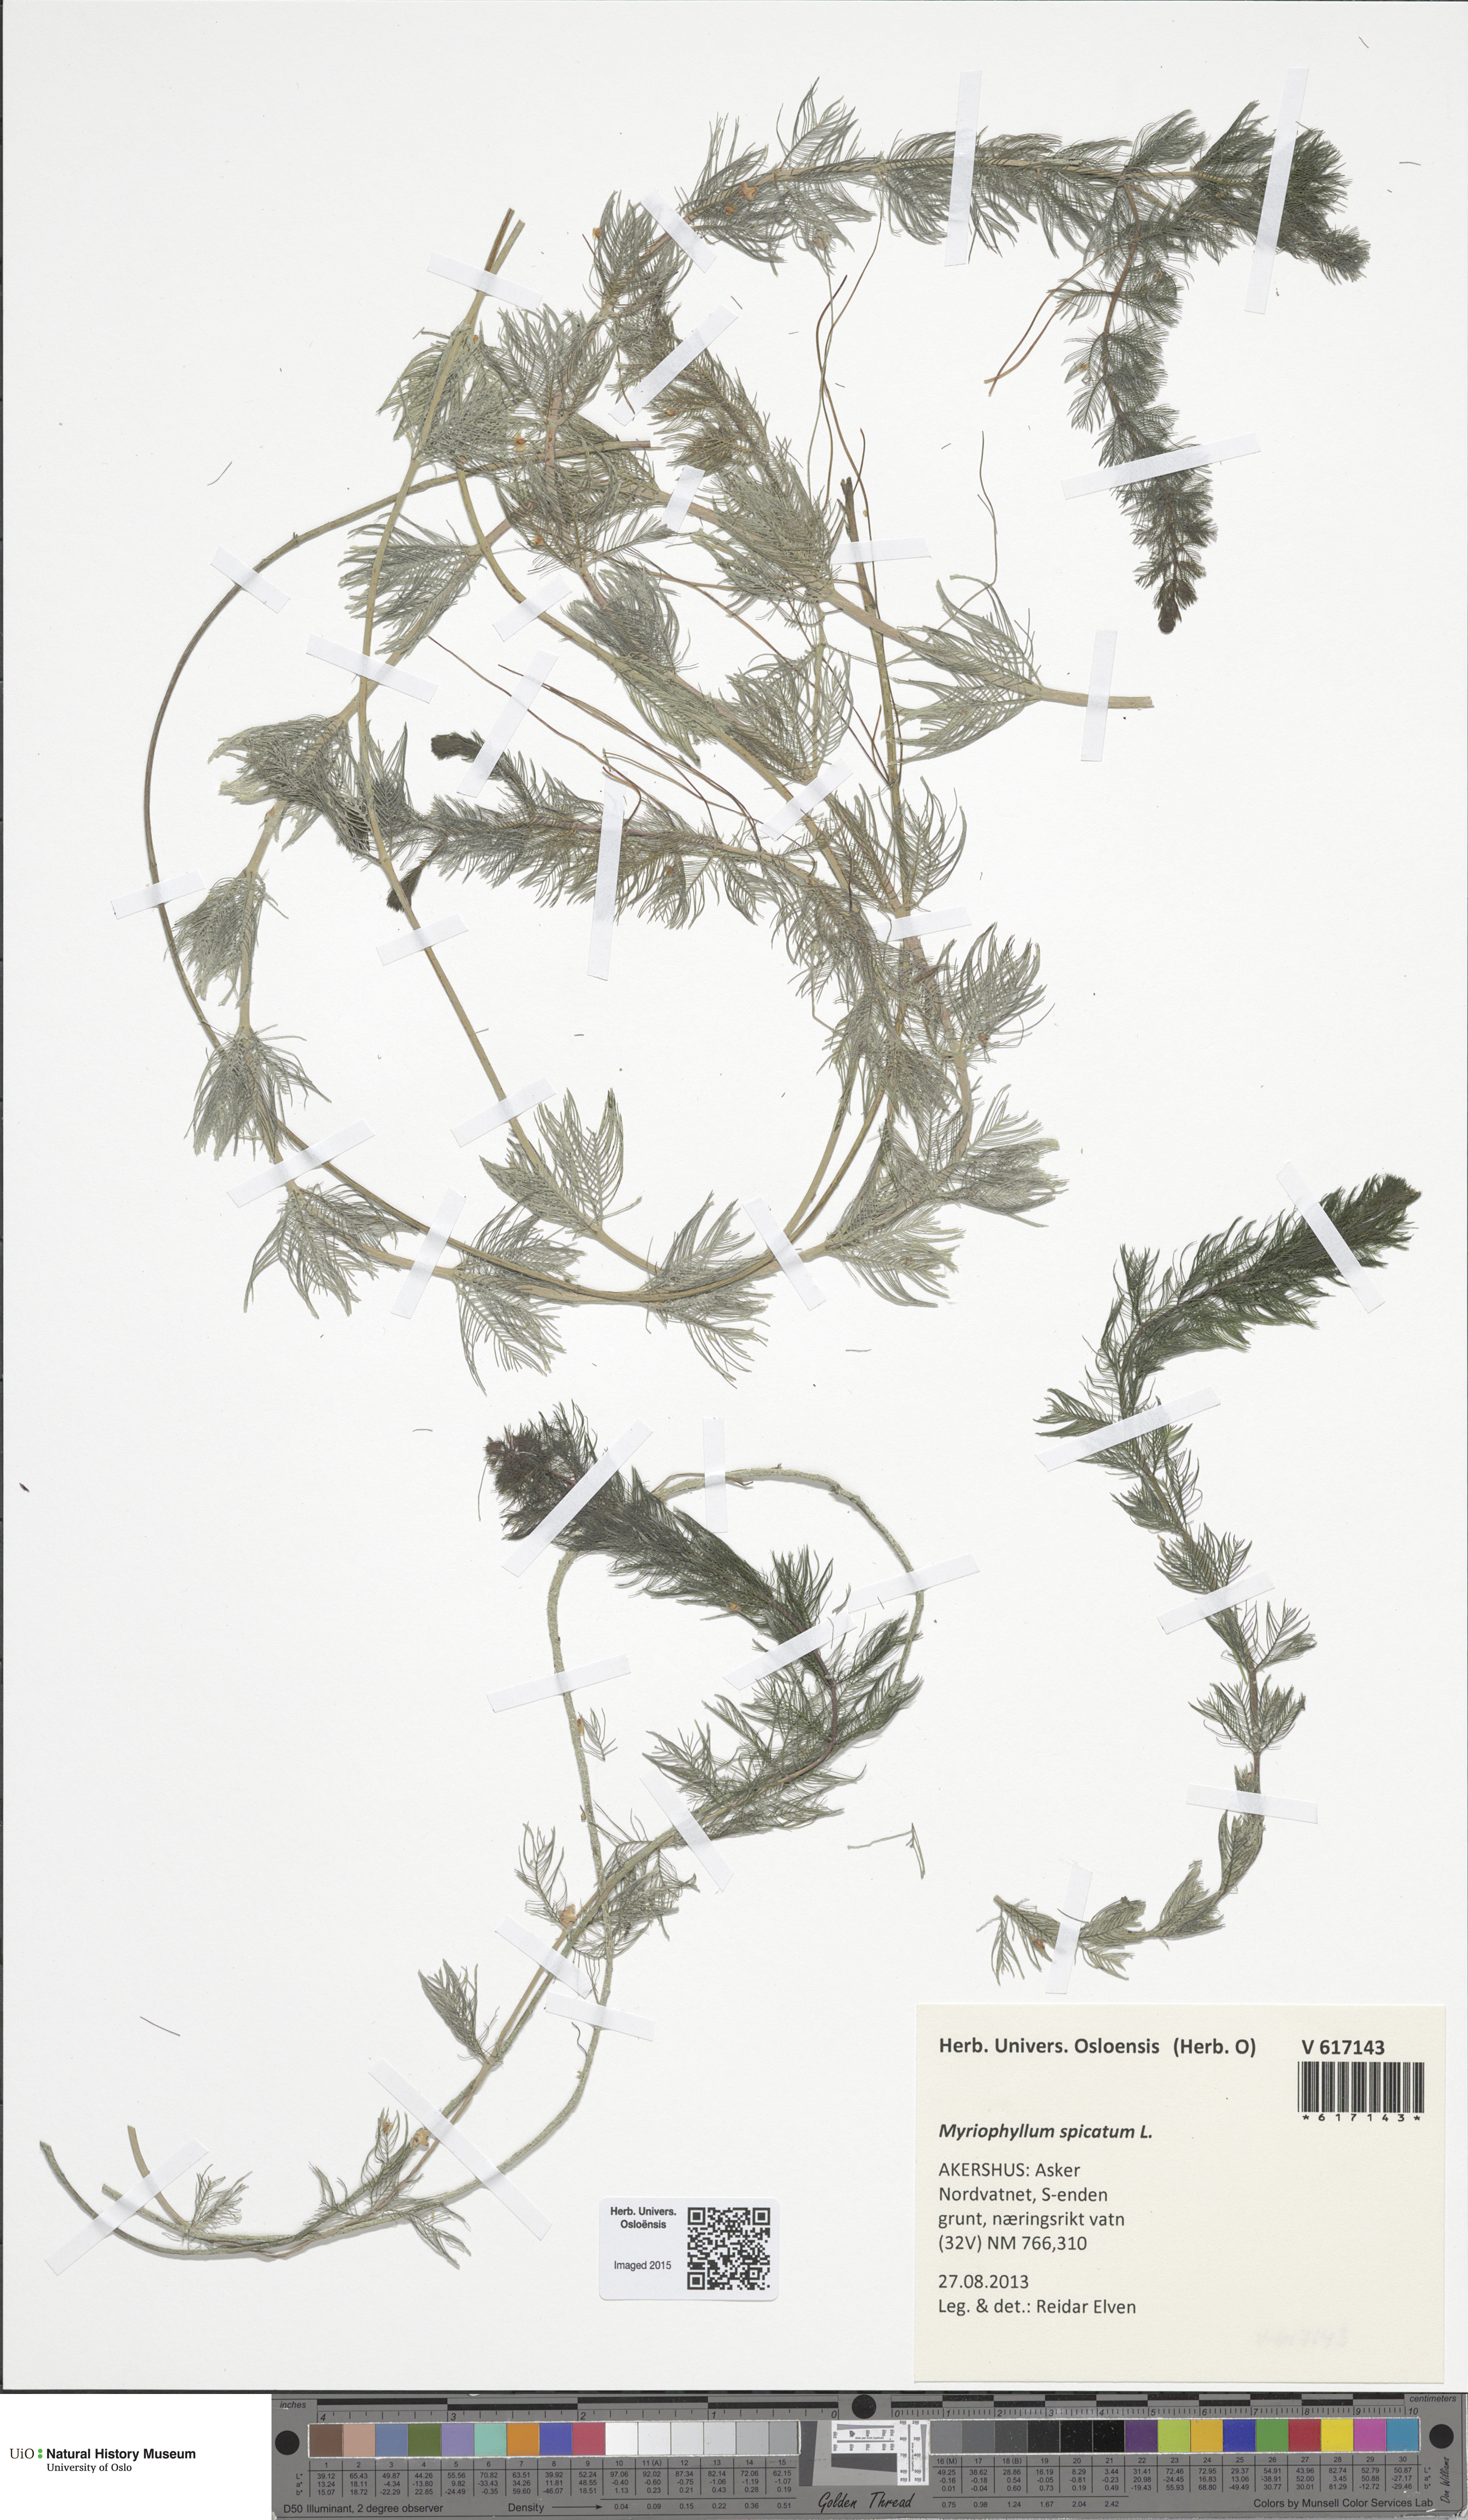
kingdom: Plantae
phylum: Tracheophyta
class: Magnoliopsida
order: Saxifragales
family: Haloragaceae
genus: Myriophyllum
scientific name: Myriophyllum spicatum
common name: Spiked water-milfoil
